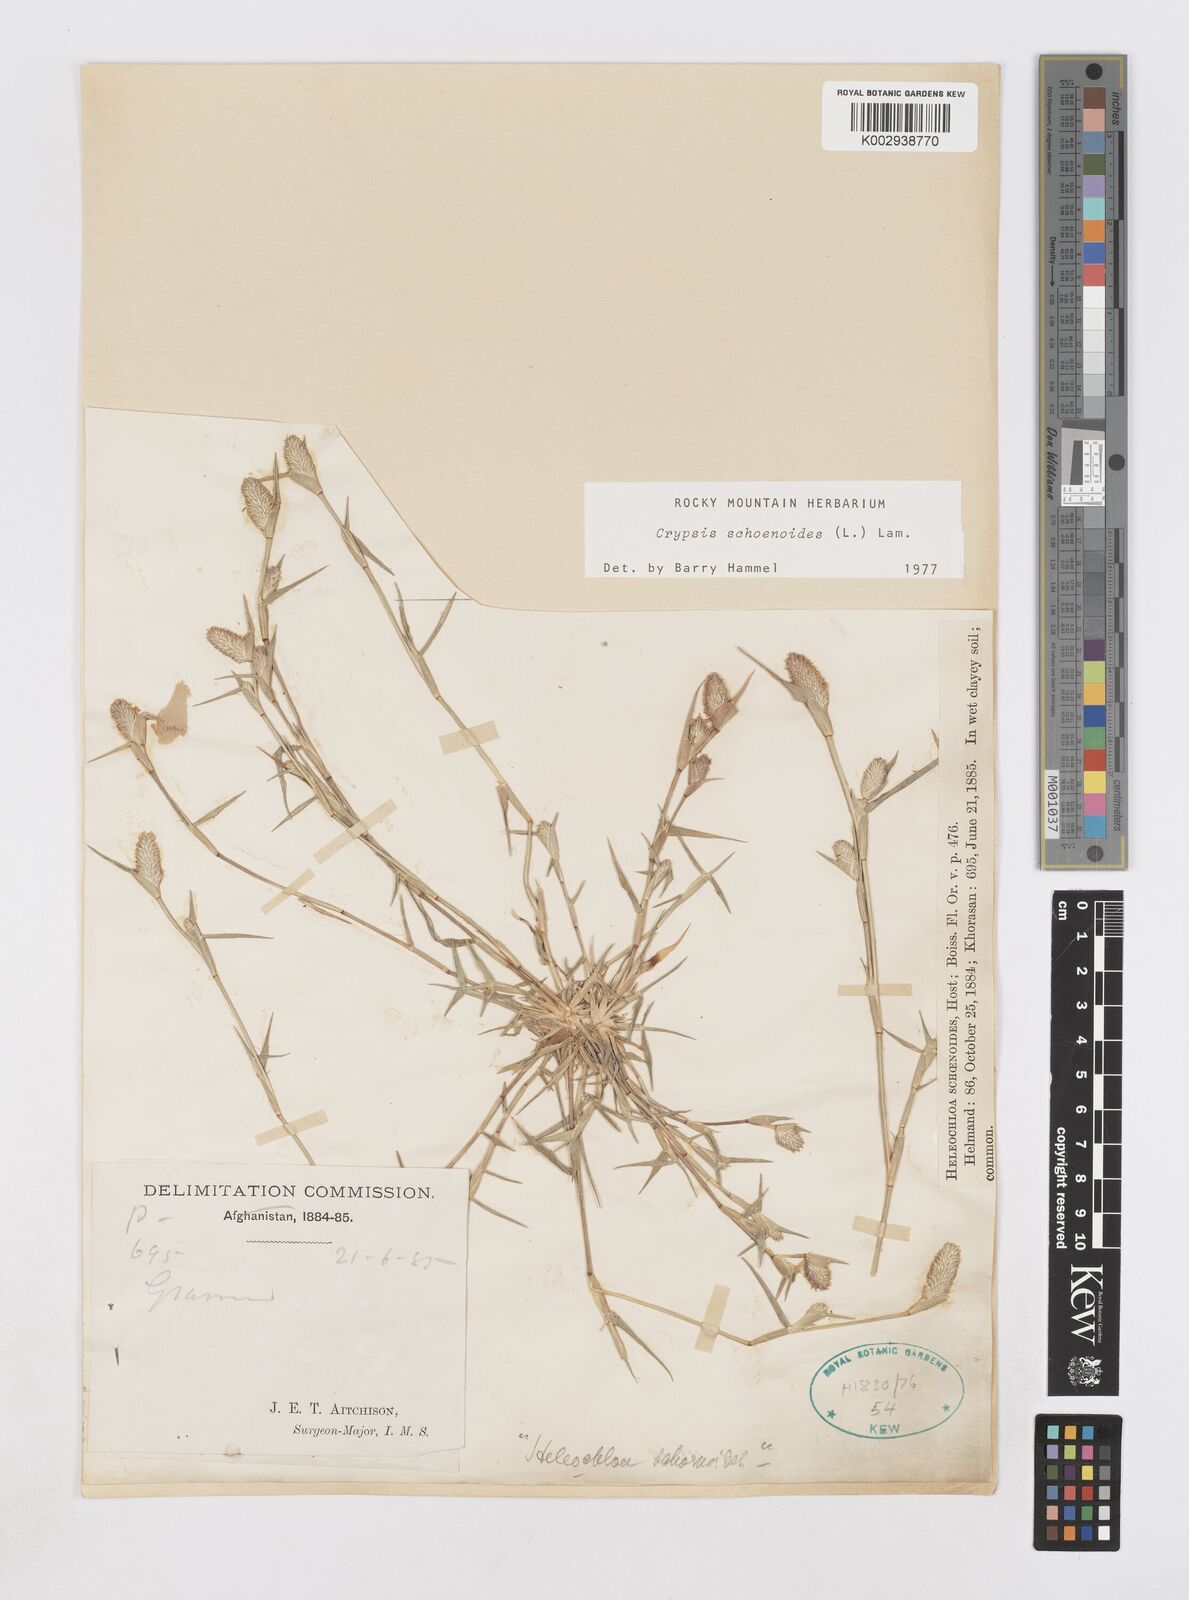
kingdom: Plantae
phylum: Tracheophyta
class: Liliopsida
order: Poales
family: Poaceae
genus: Sporobolus
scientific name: Sporobolus schoenoides
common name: Rush-like timothy
